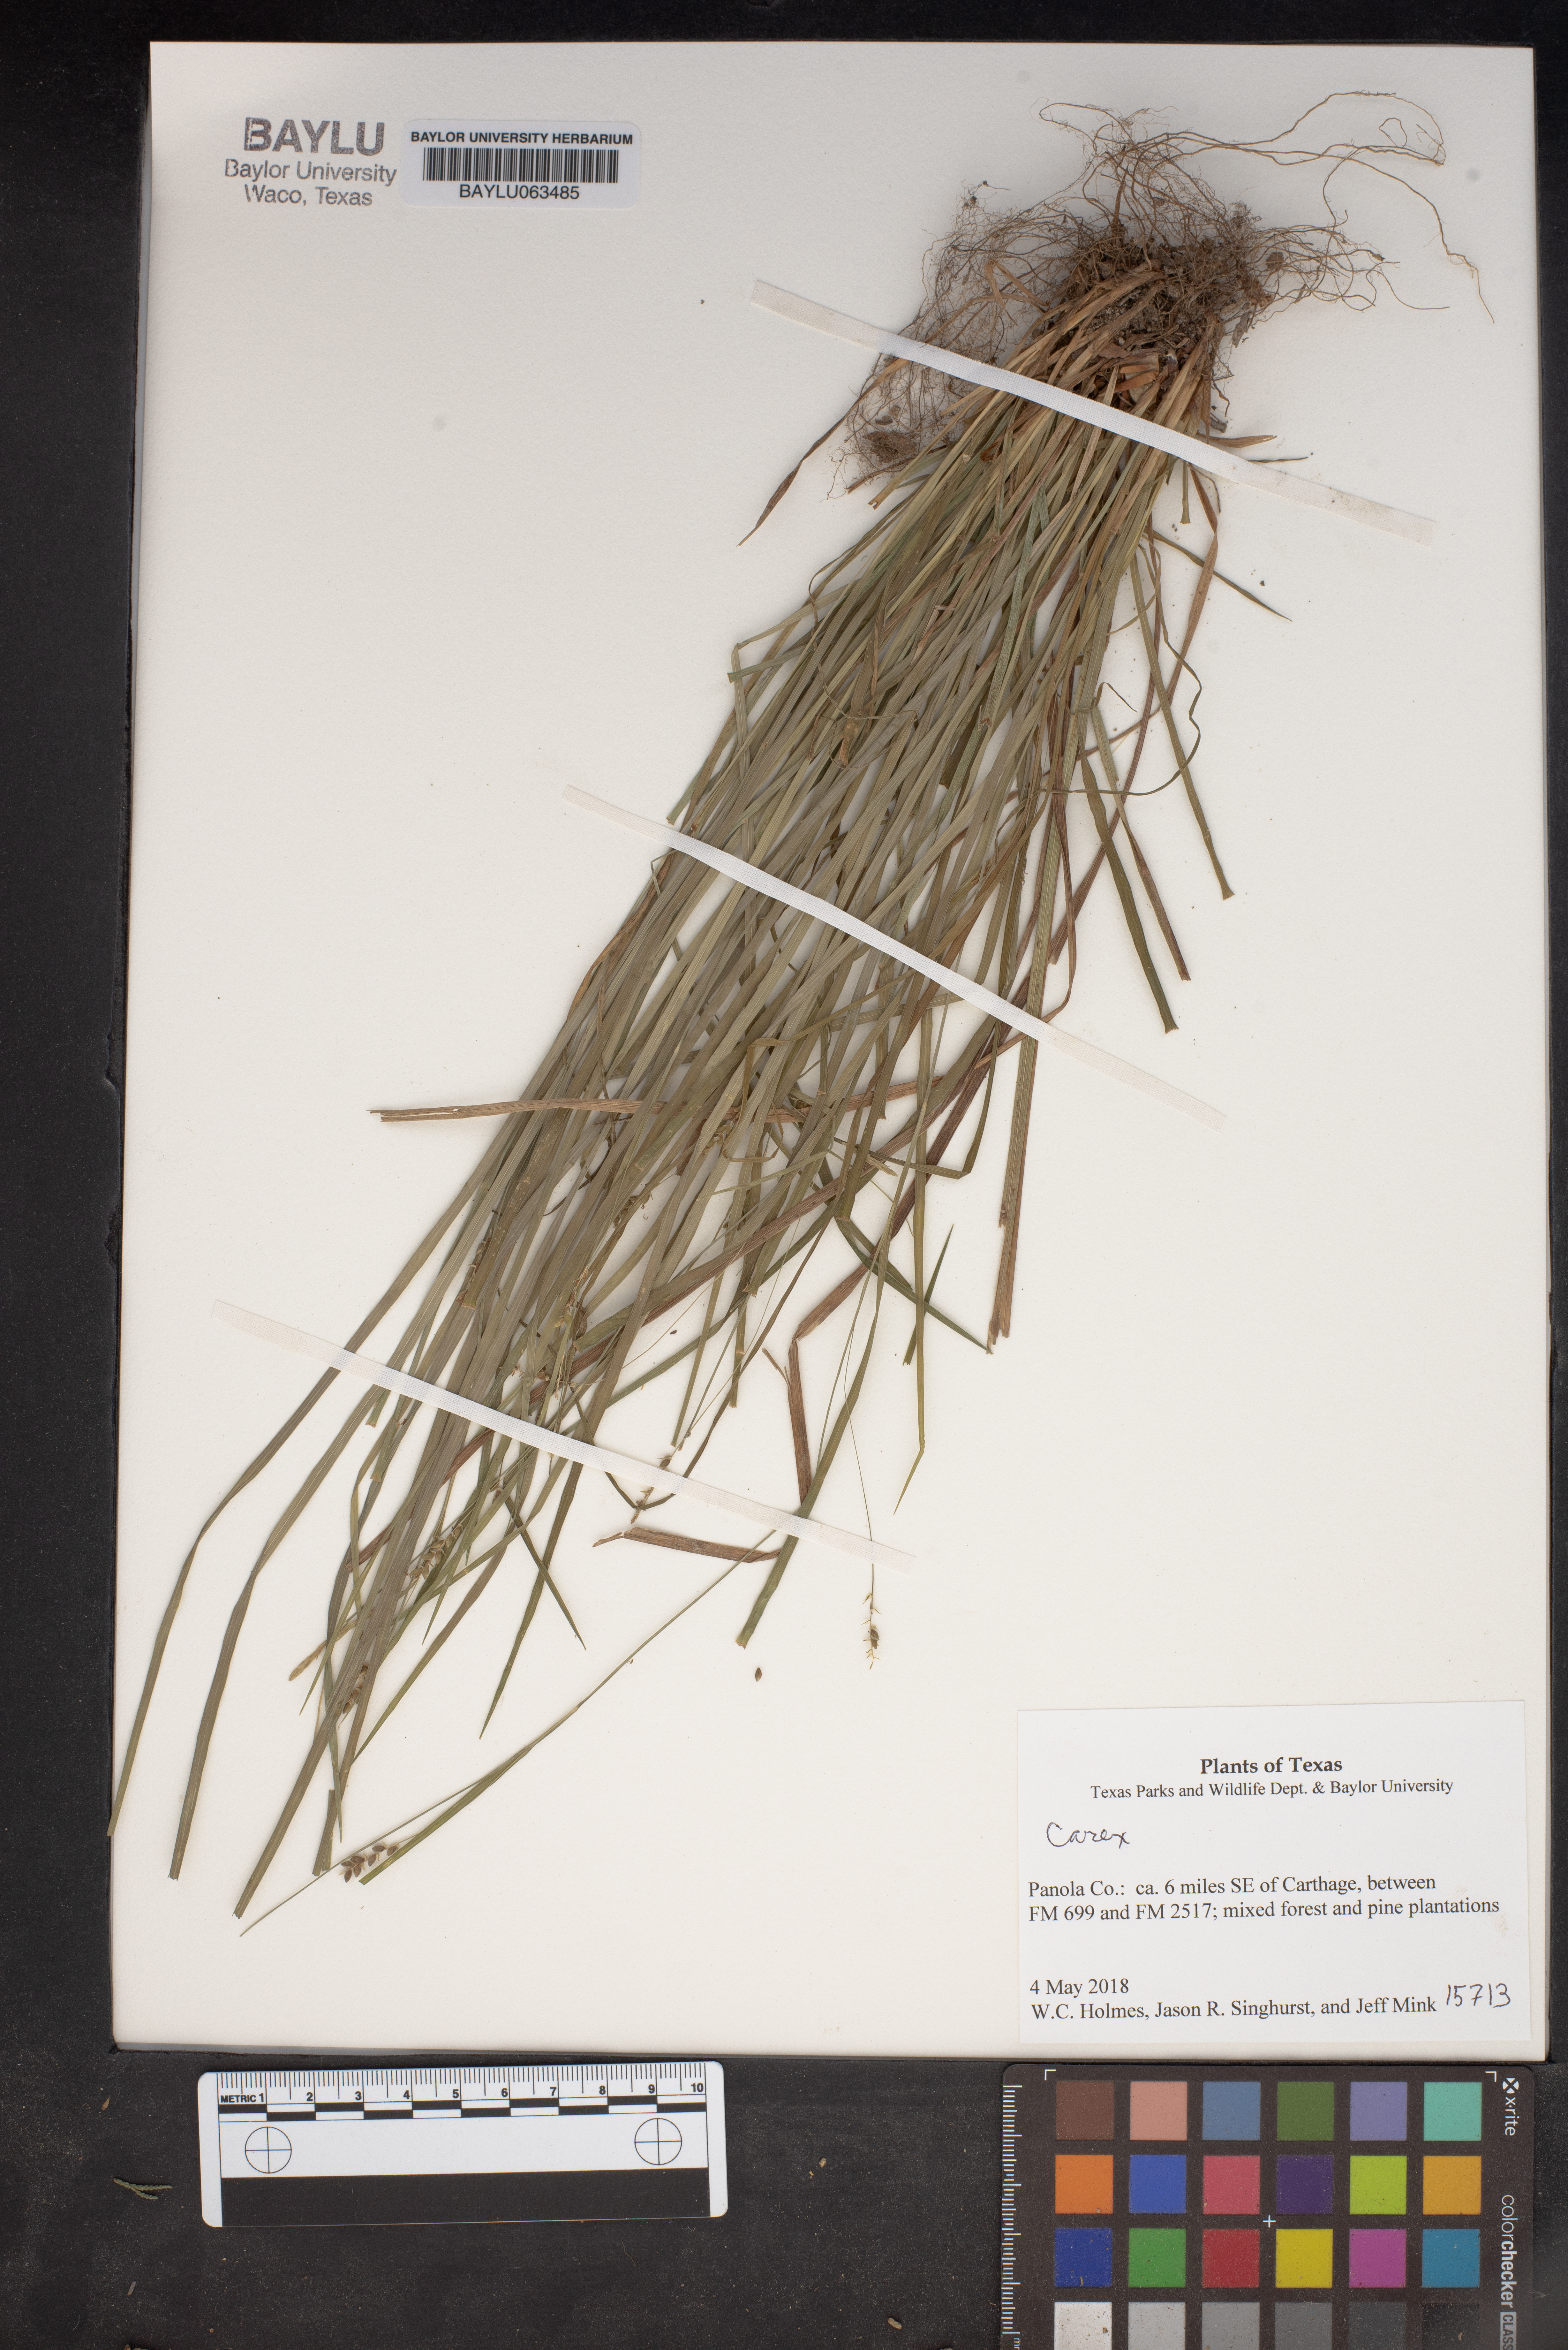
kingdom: Plantae
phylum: Tracheophyta
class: Liliopsida
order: Poales
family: Cyperaceae
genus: Carex
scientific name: Carex
